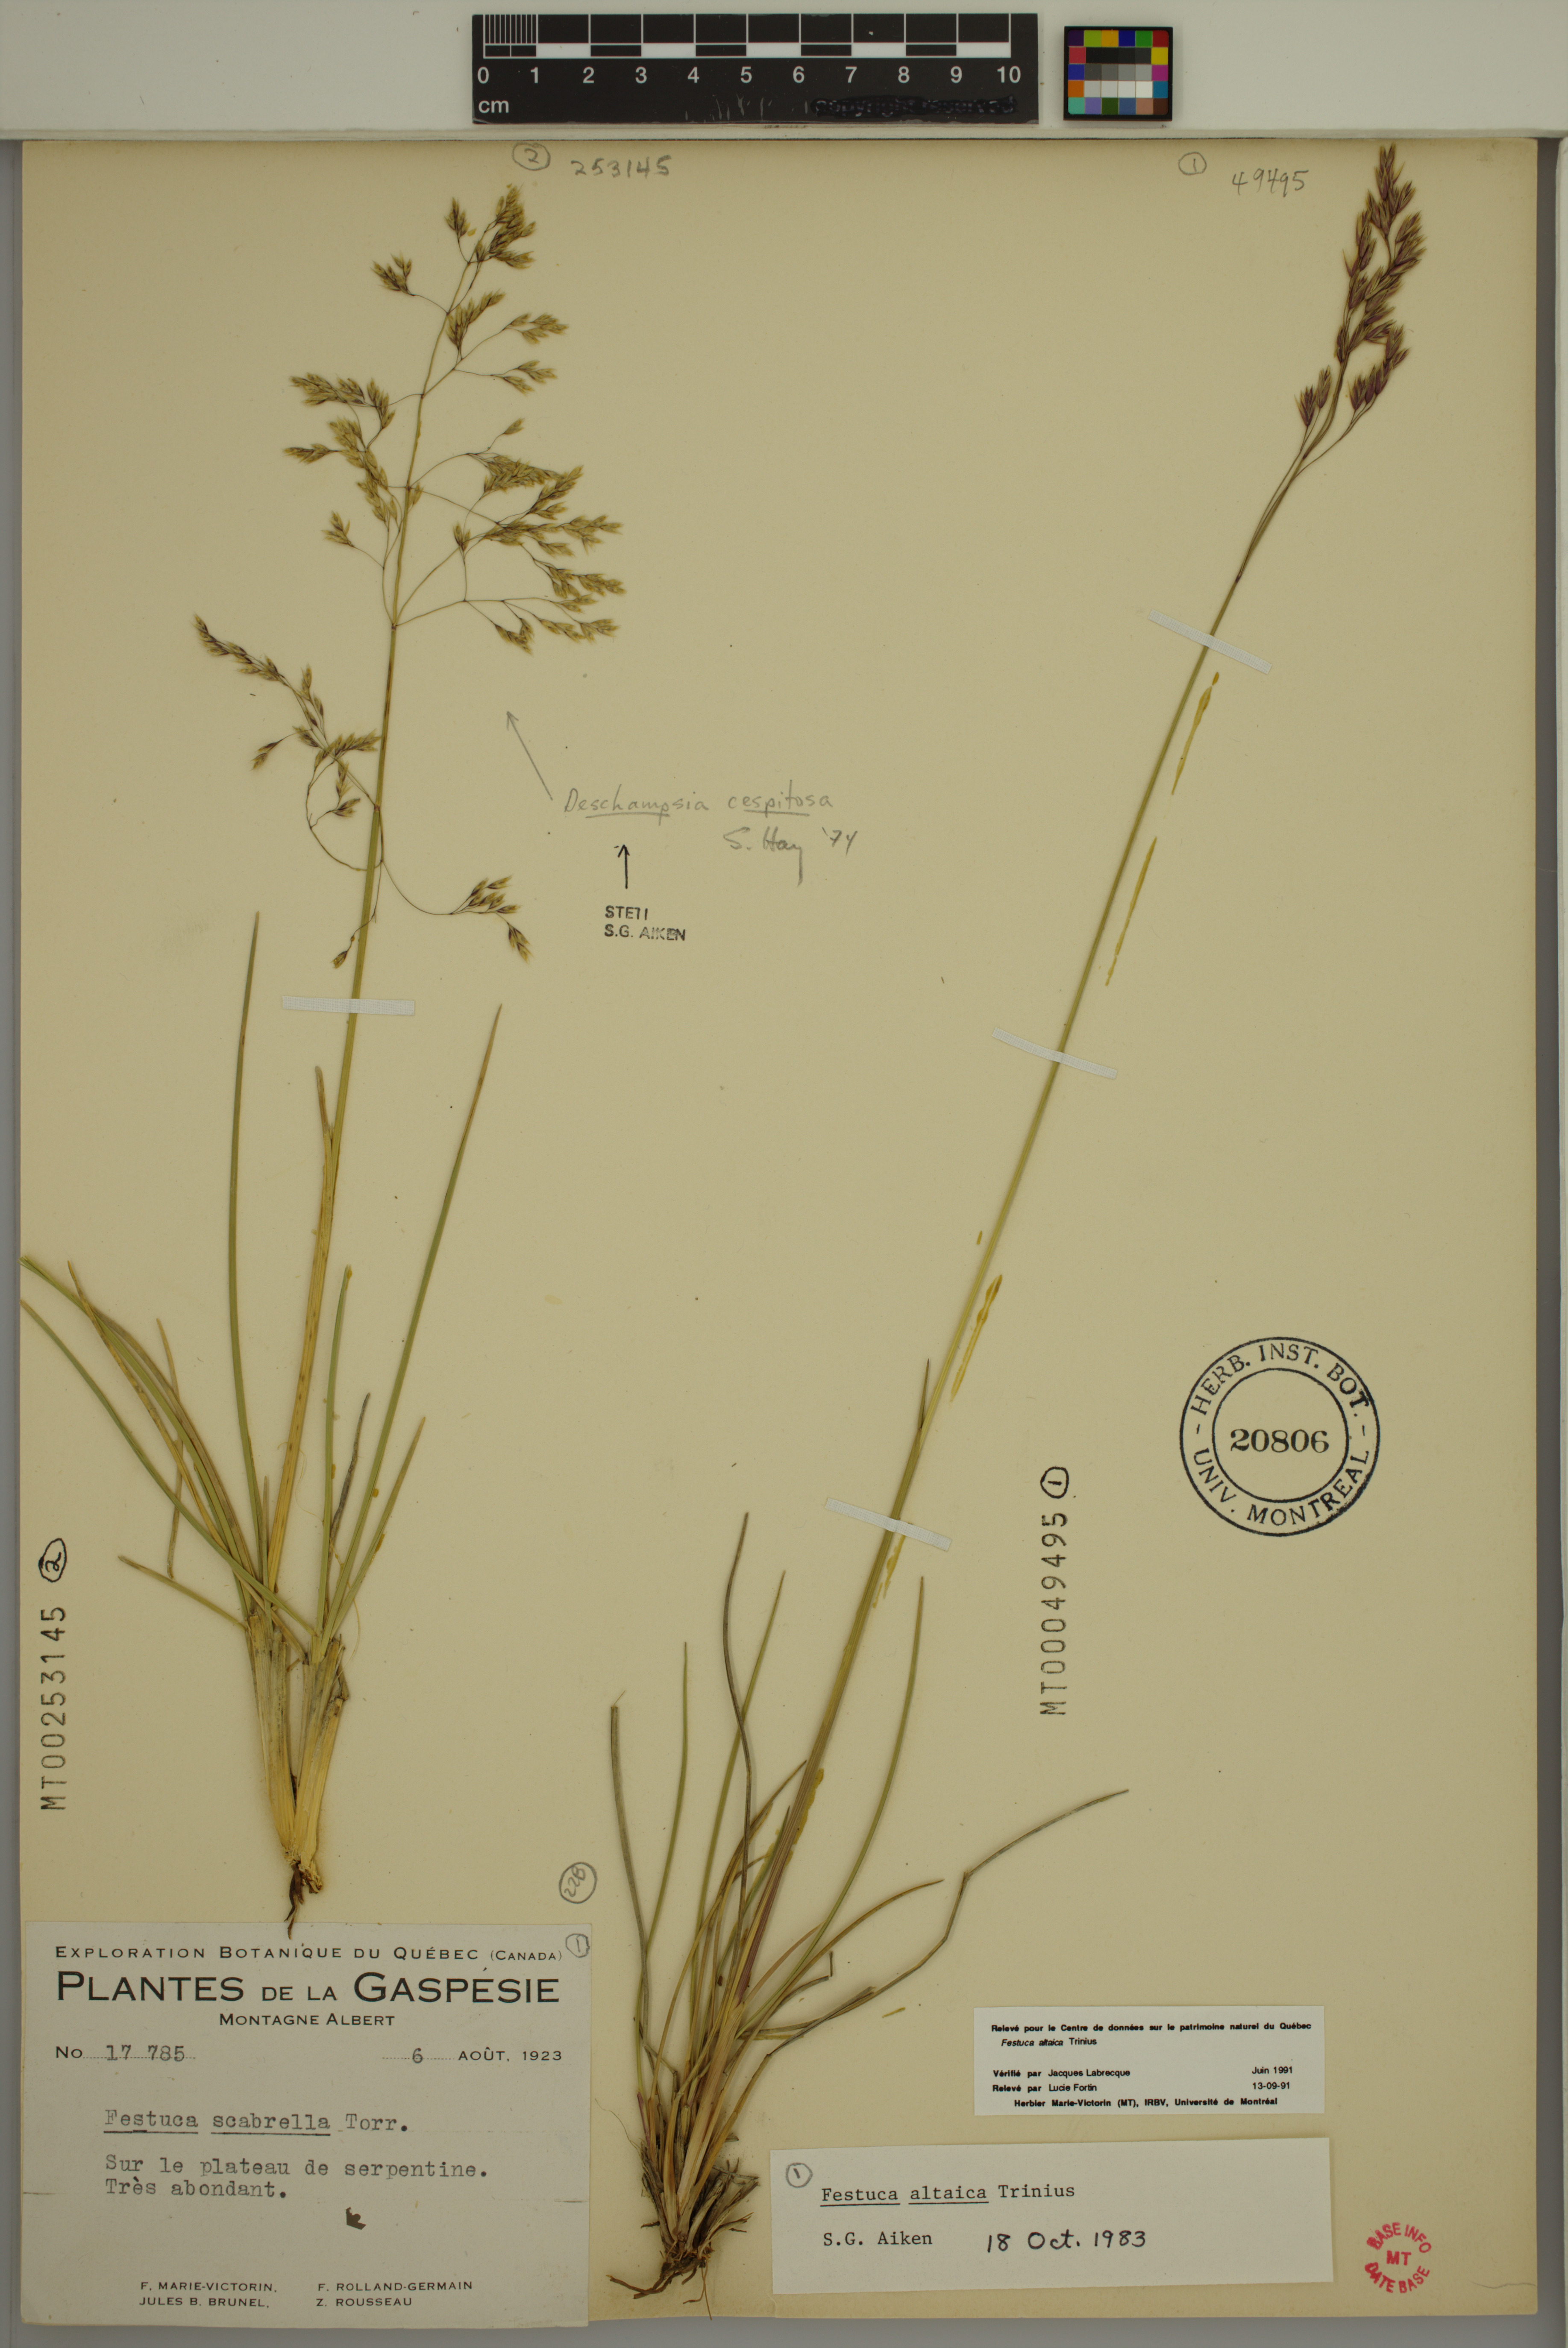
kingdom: Plantae
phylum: Tracheophyta
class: Liliopsida
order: Poales
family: Poaceae
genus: Deschampsia
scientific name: Deschampsia cespitosa
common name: Tufted hair-grass
